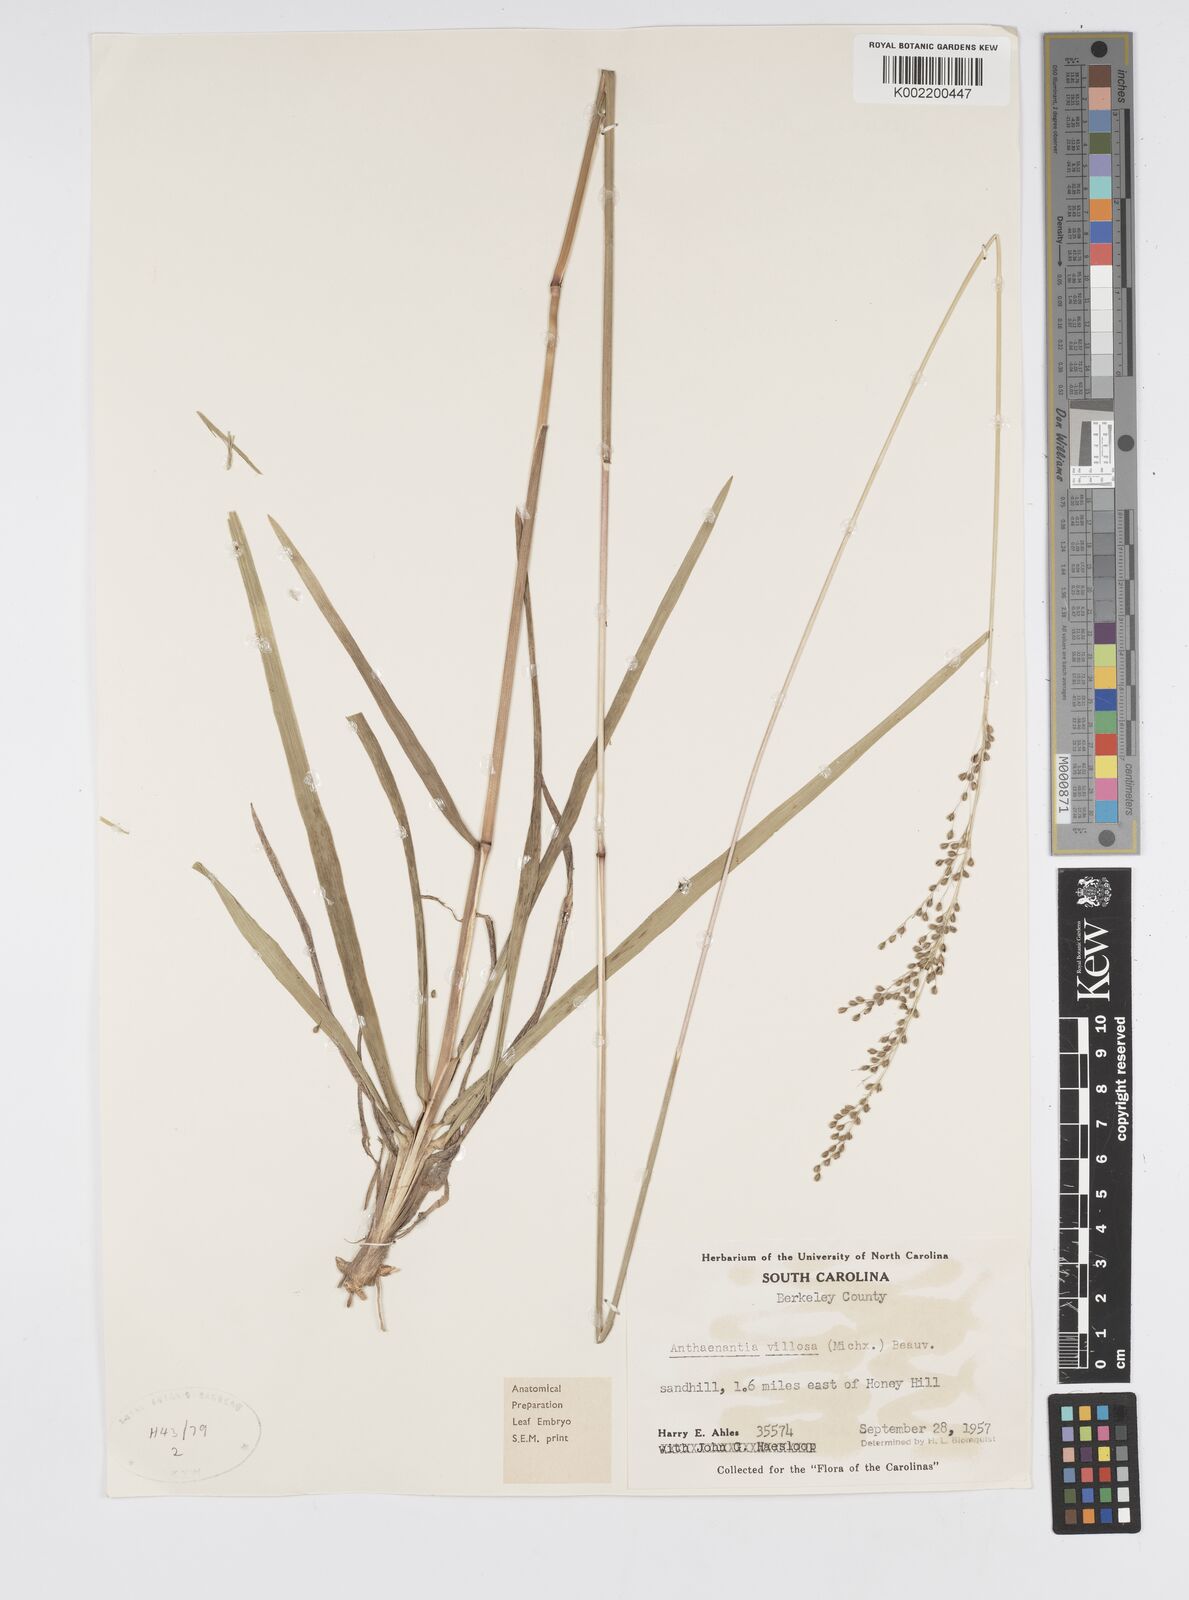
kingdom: Plantae
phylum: Tracheophyta
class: Liliopsida
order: Poales
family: Poaceae
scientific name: Poaceae
